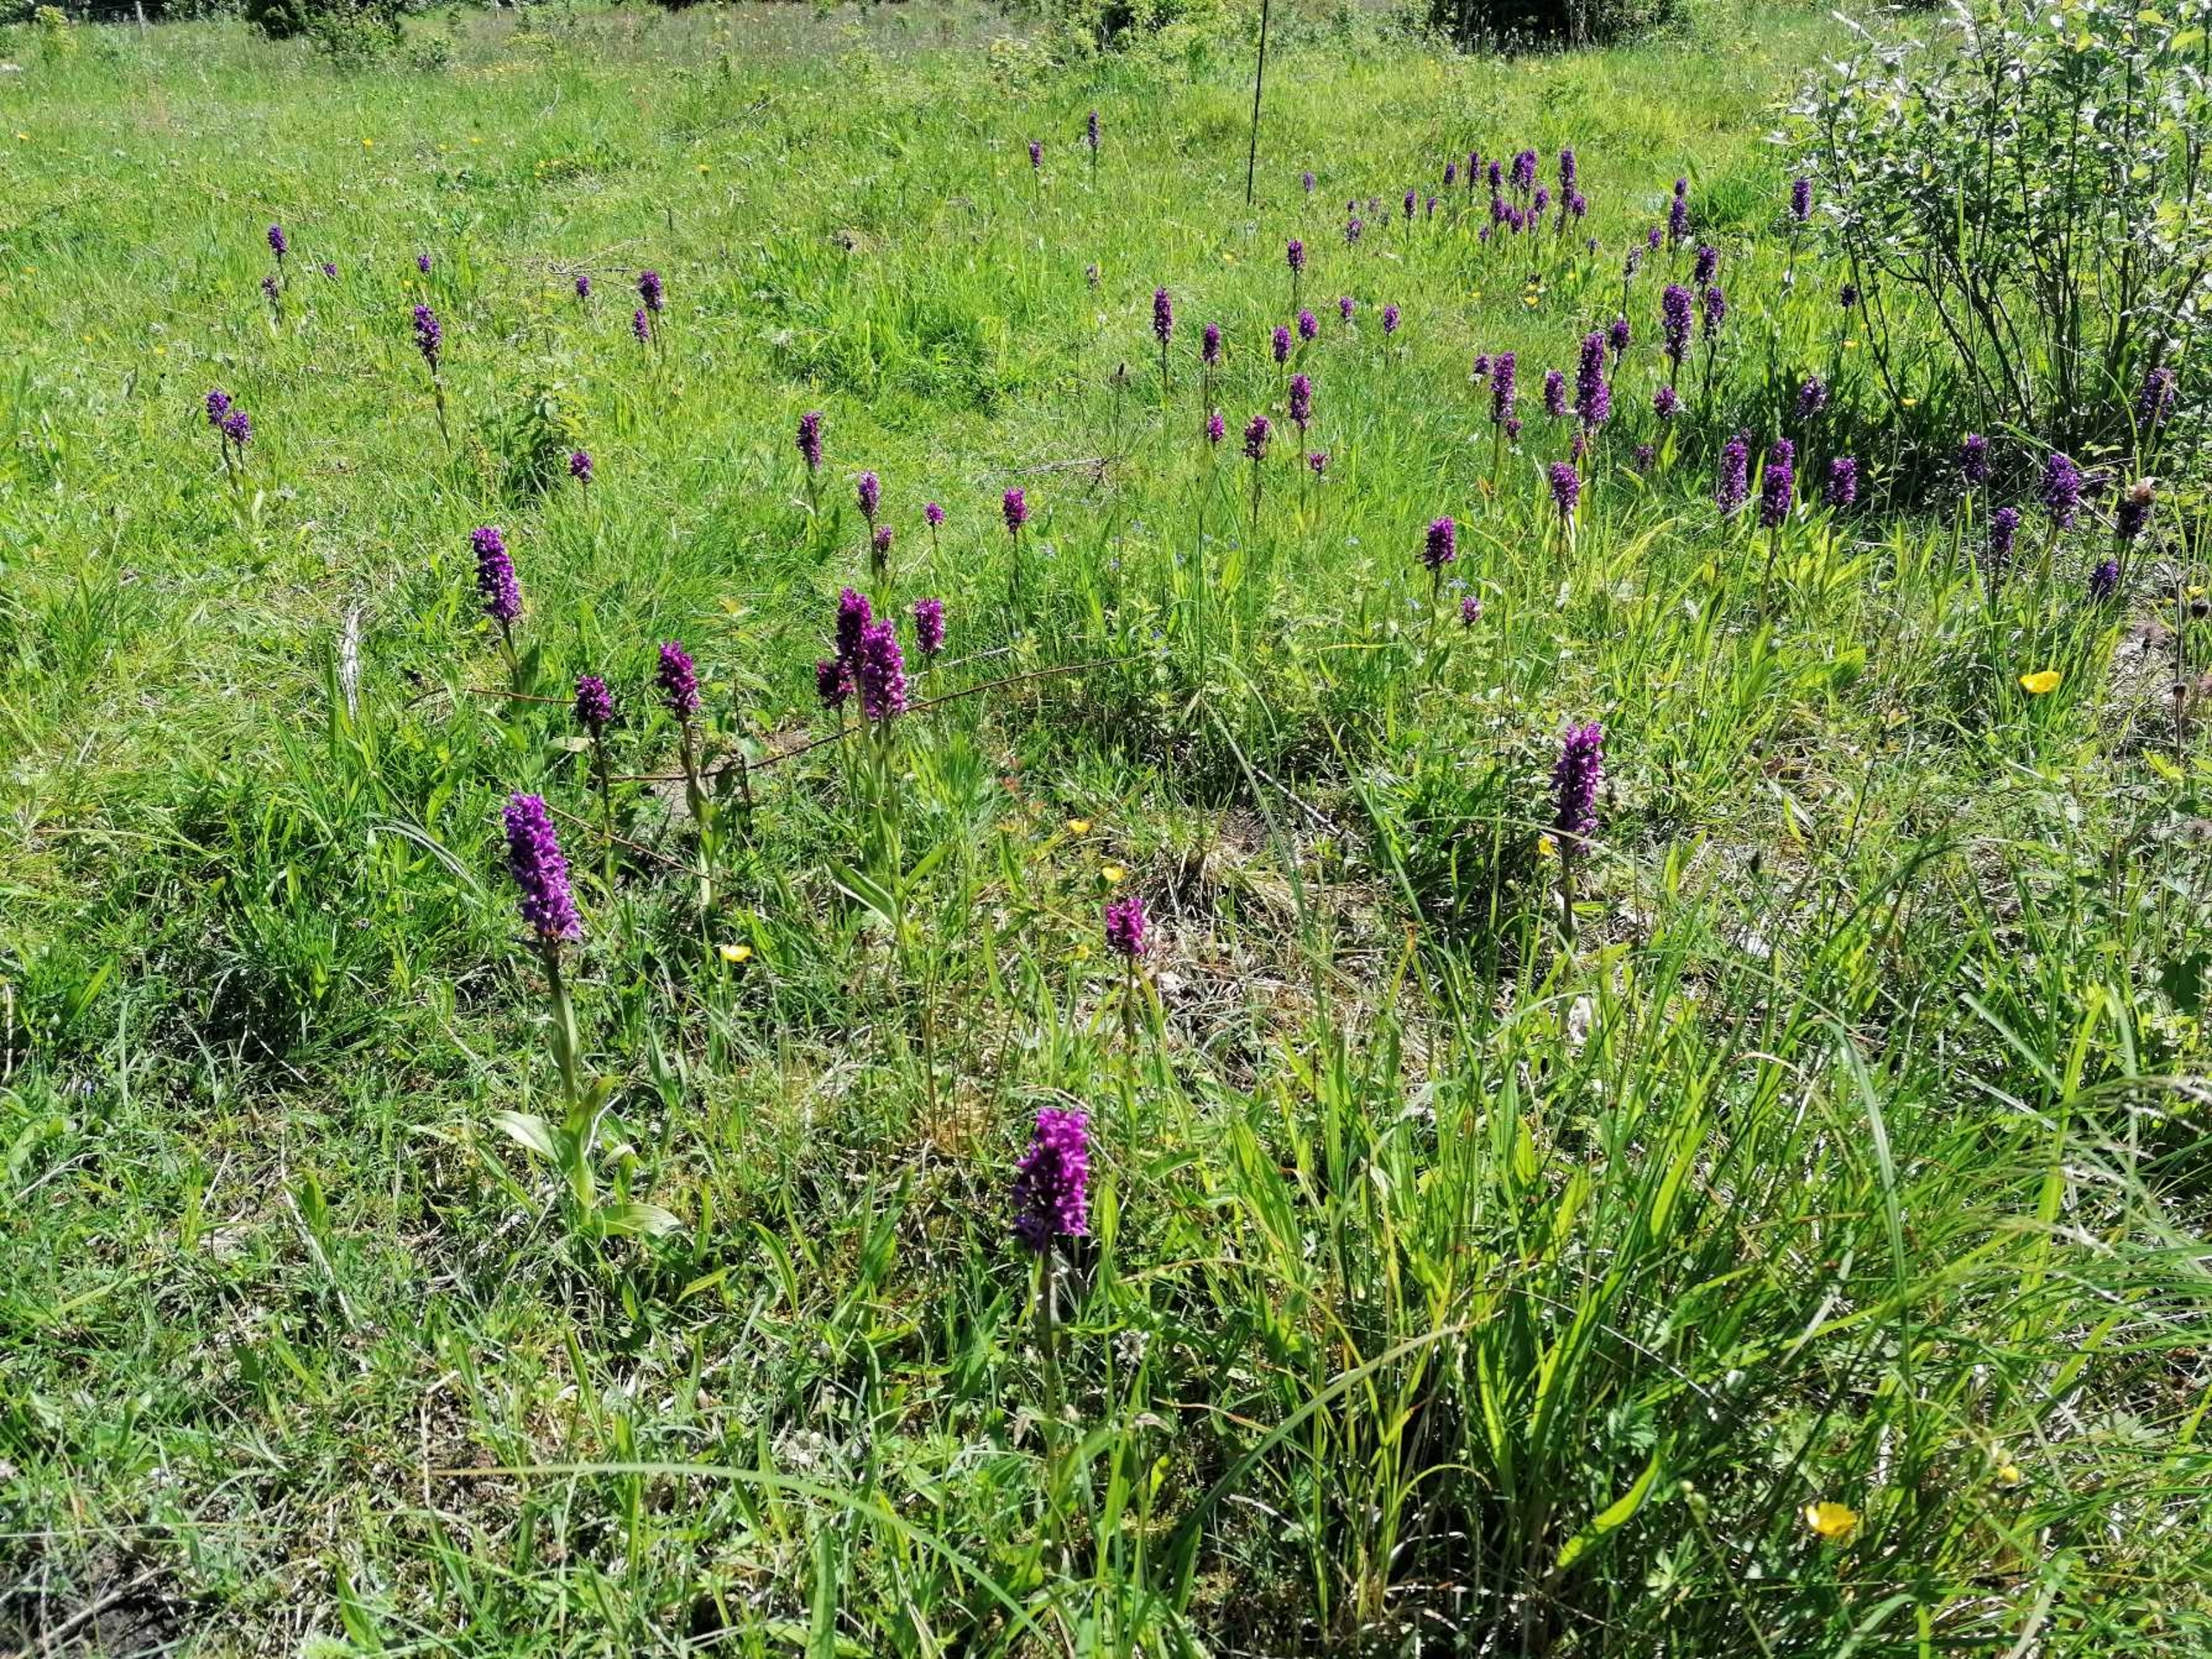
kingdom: Plantae
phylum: Tracheophyta
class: Liliopsida
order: Asparagales
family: Orchidaceae
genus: Dactylorhiza
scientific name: Dactylorhiza majalis
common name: Maj-gøgeurt
